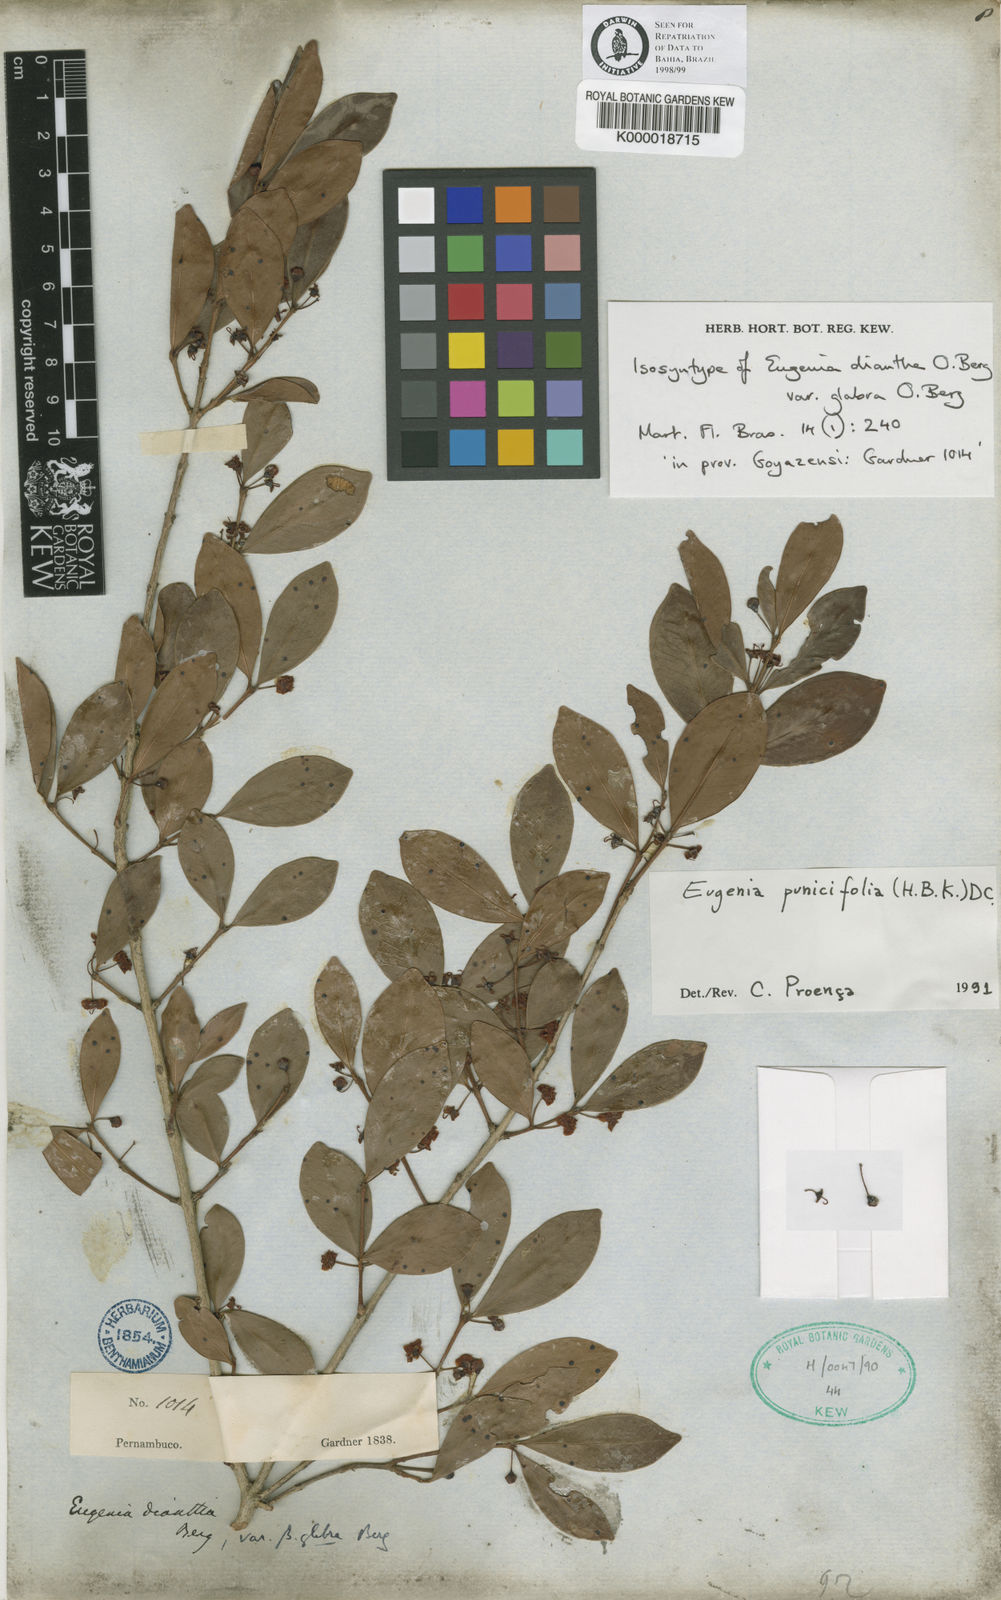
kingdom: Plantae
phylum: Tracheophyta
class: Magnoliopsida
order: Myrtales
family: Myrtaceae
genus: Eugenia
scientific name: Eugenia punicifolia
